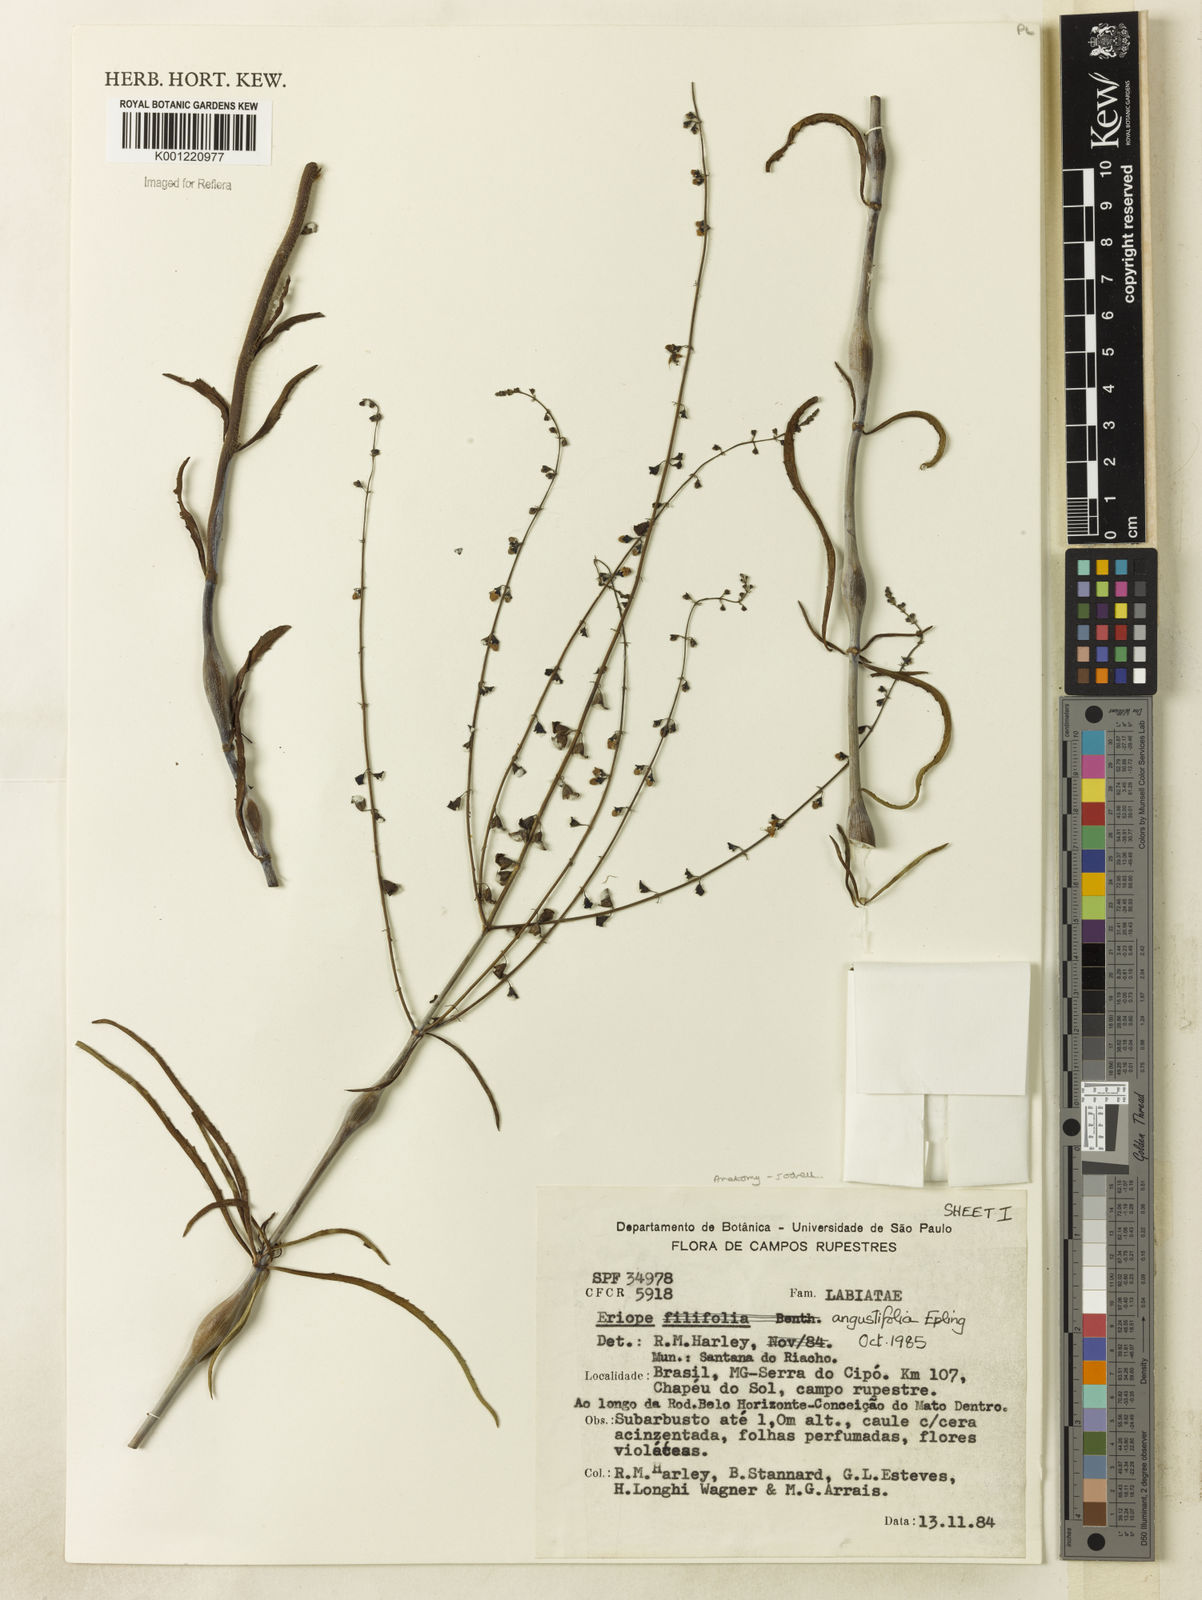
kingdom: Plantae
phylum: Tracheophyta
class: Magnoliopsida
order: Lamiales
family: Lamiaceae
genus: Eriope
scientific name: Eriope angustifolia
